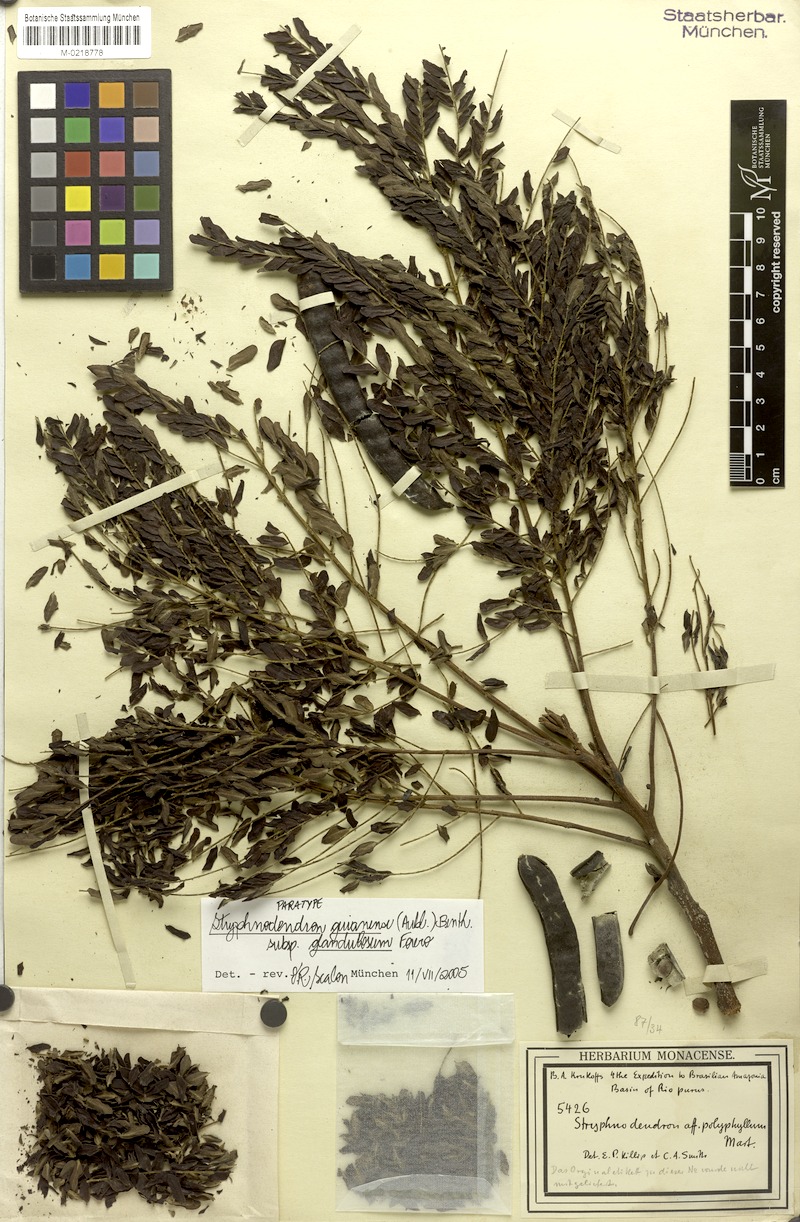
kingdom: Plantae
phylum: Tracheophyta
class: Magnoliopsida
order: Fabales
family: Fabaceae
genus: Stryphnodendron
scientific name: Stryphnodendron guianense
